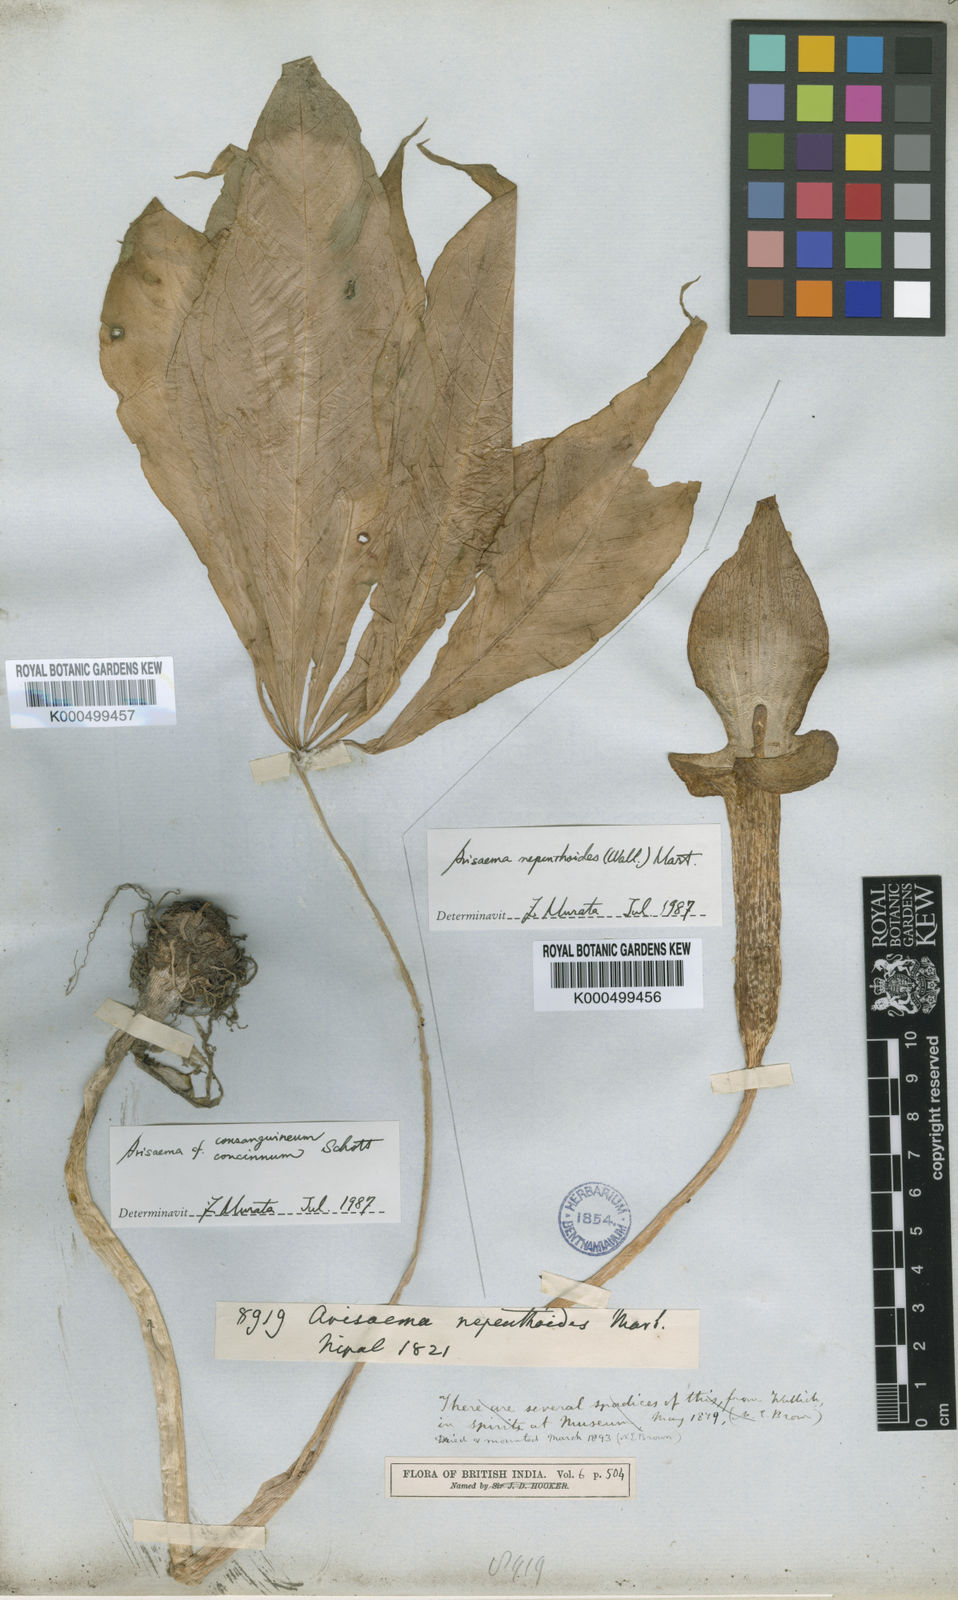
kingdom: Plantae
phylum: Tracheophyta
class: Liliopsida
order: Alismatales
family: Araceae
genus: Arisaema
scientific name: Arisaema nepenthoides
